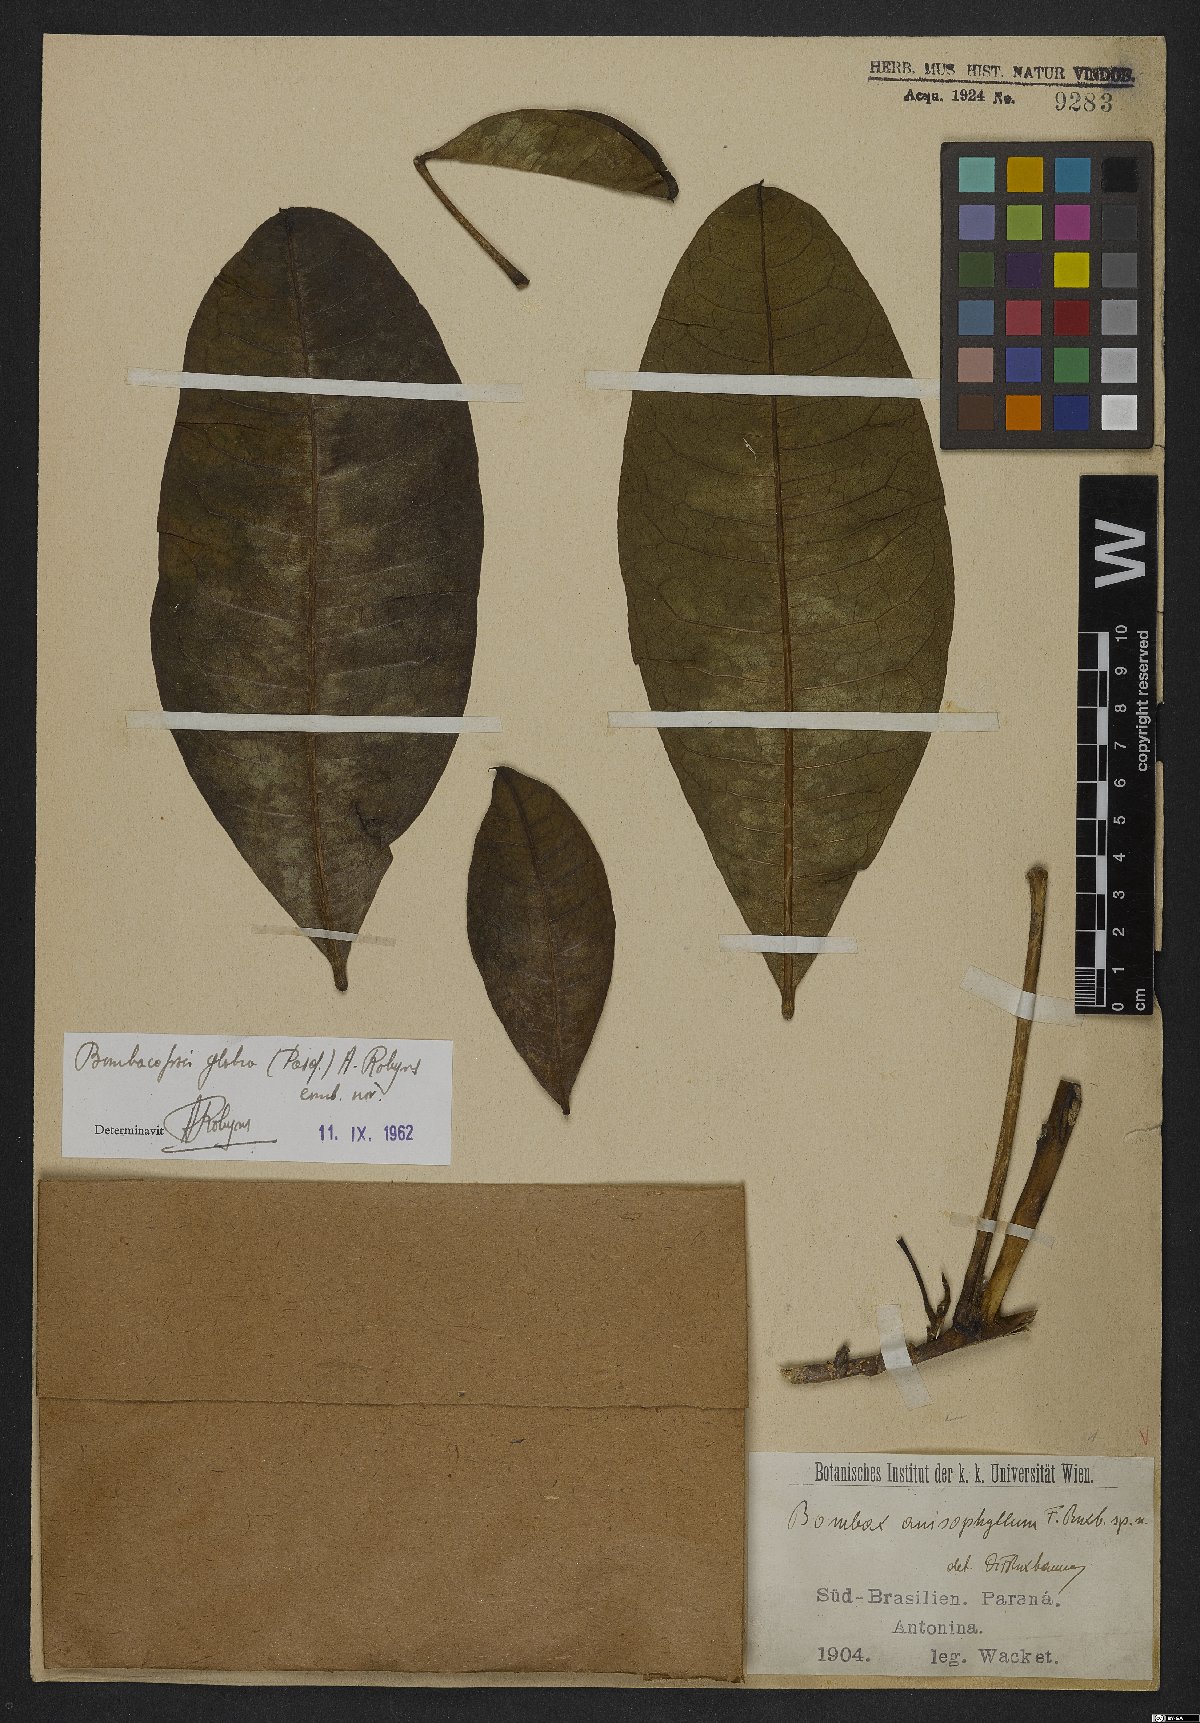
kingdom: Plantae
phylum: Tracheophyta
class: Magnoliopsida
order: Malvales
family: Malvaceae
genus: Pachira
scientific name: Pachira glabra
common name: Moneytree
